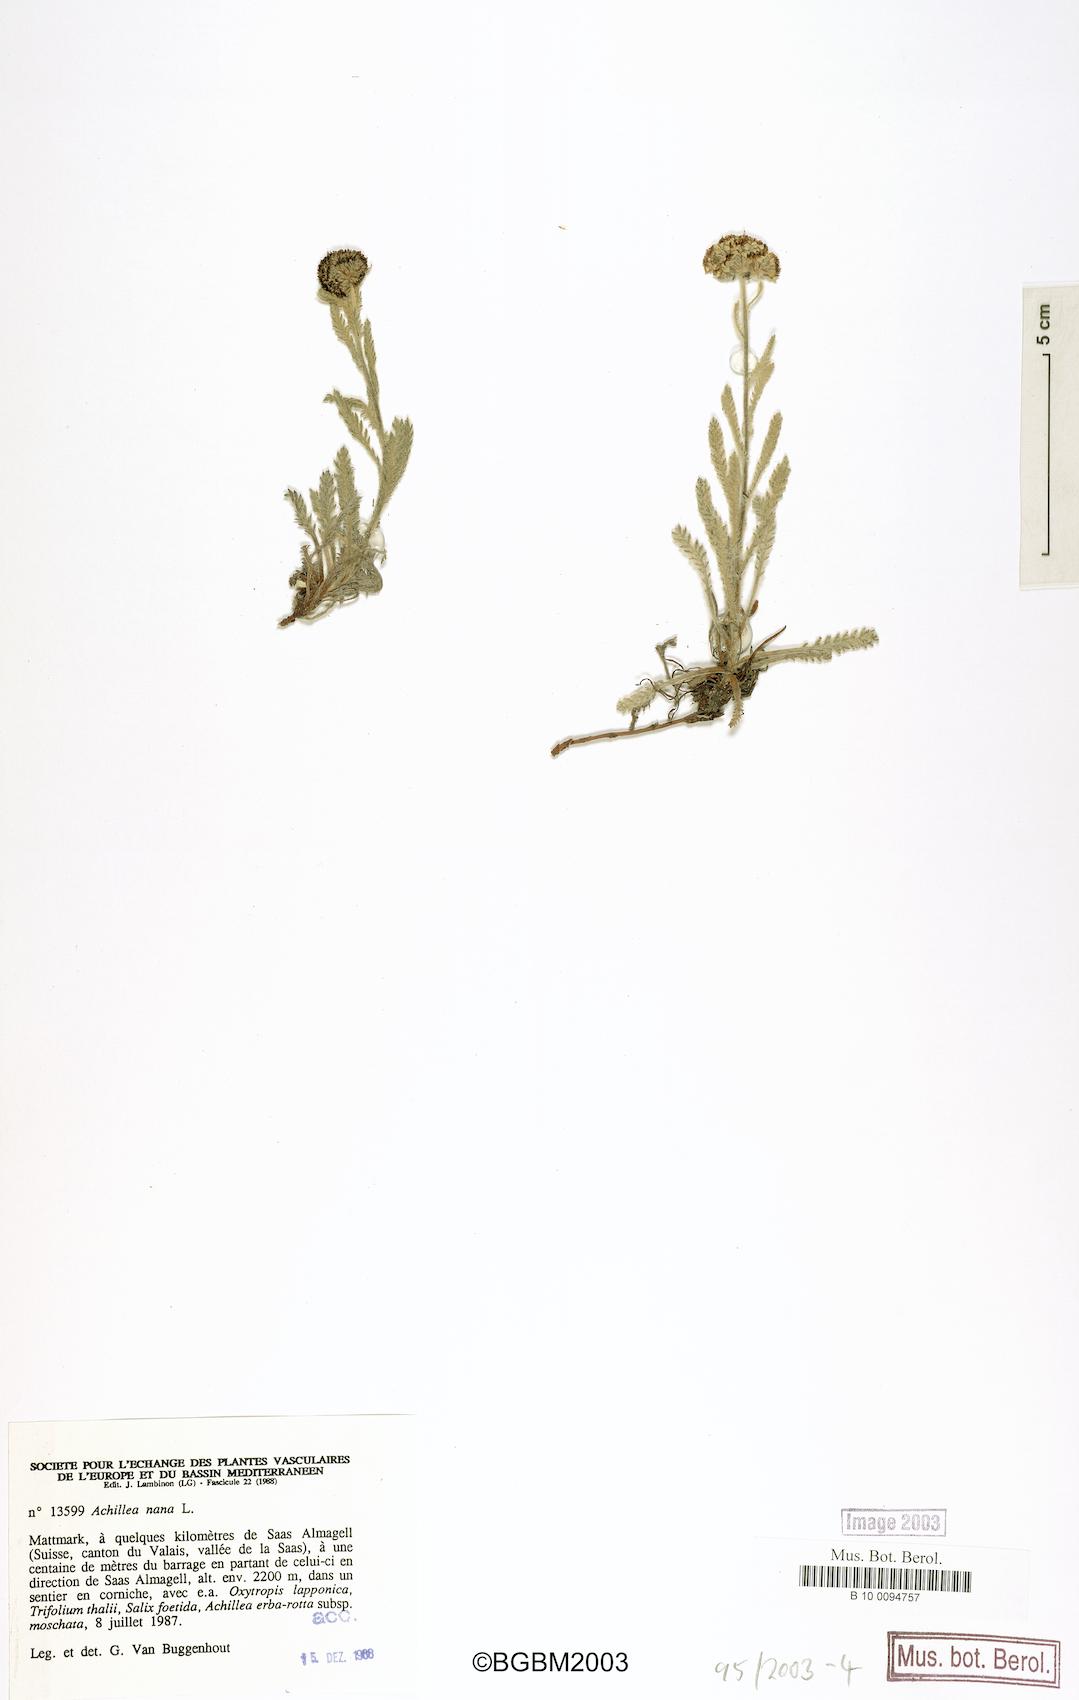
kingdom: Plantae
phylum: Tracheophyta
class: Magnoliopsida
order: Asterales
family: Asteraceae
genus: Achillea
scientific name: Achillea nana
